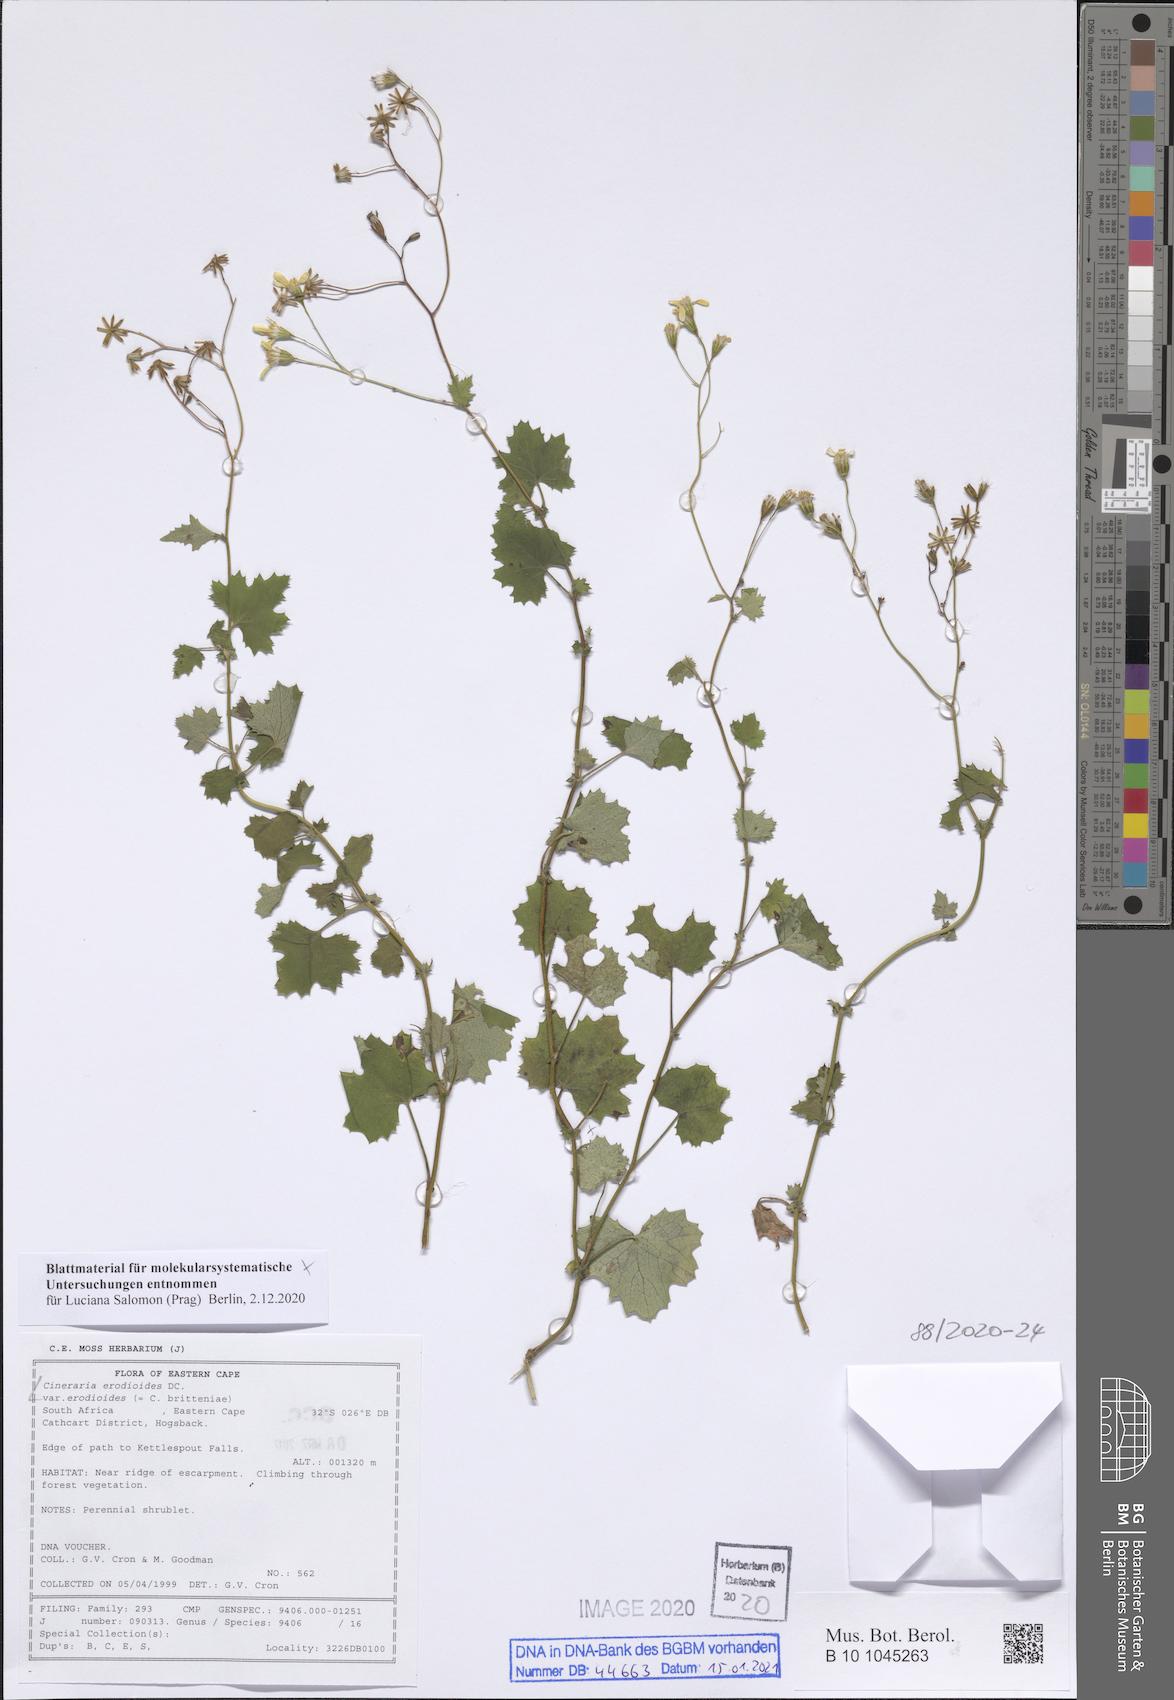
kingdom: Plantae
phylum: Tracheophyta
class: Magnoliopsida
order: Asterales
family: Asteraceae
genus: Cineraria
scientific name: Cineraria erodioides
